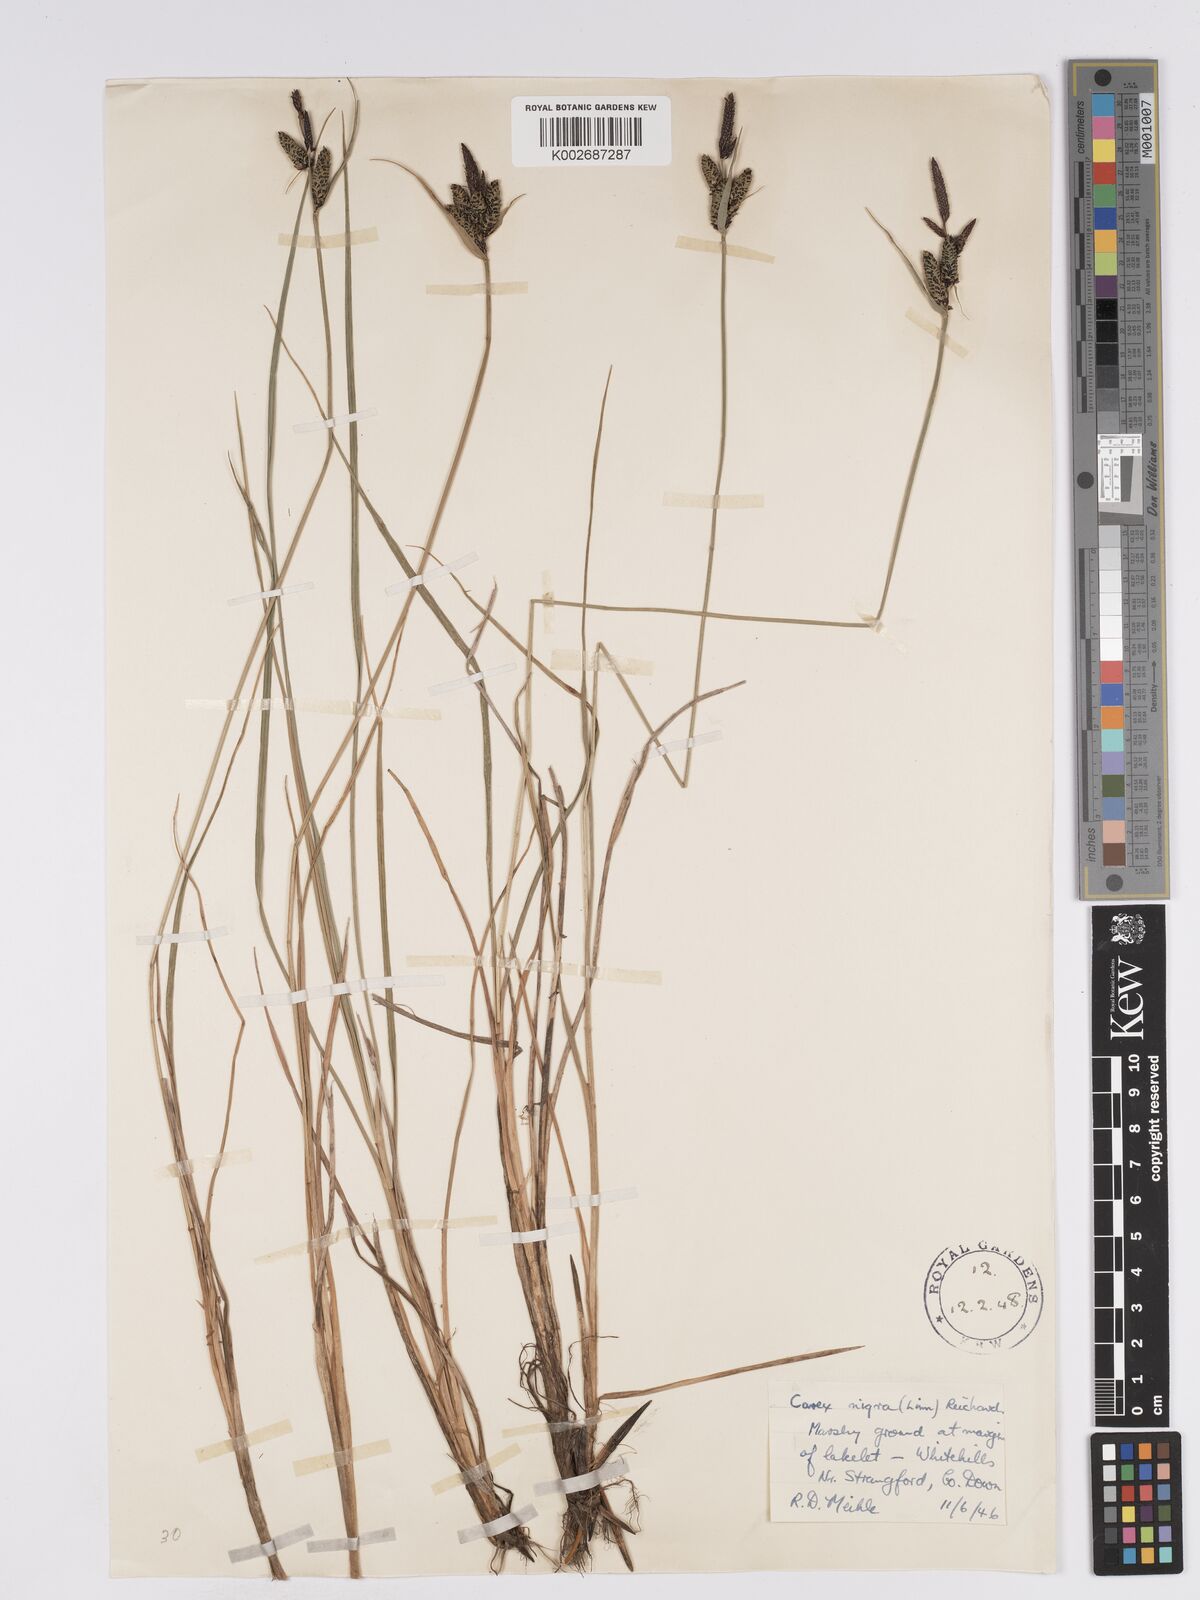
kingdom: Plantae
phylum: Tracheophyta
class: Liliopsida
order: Poales
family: Cyperaceae
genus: Carex
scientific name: Carex nigra
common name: Common sedge
